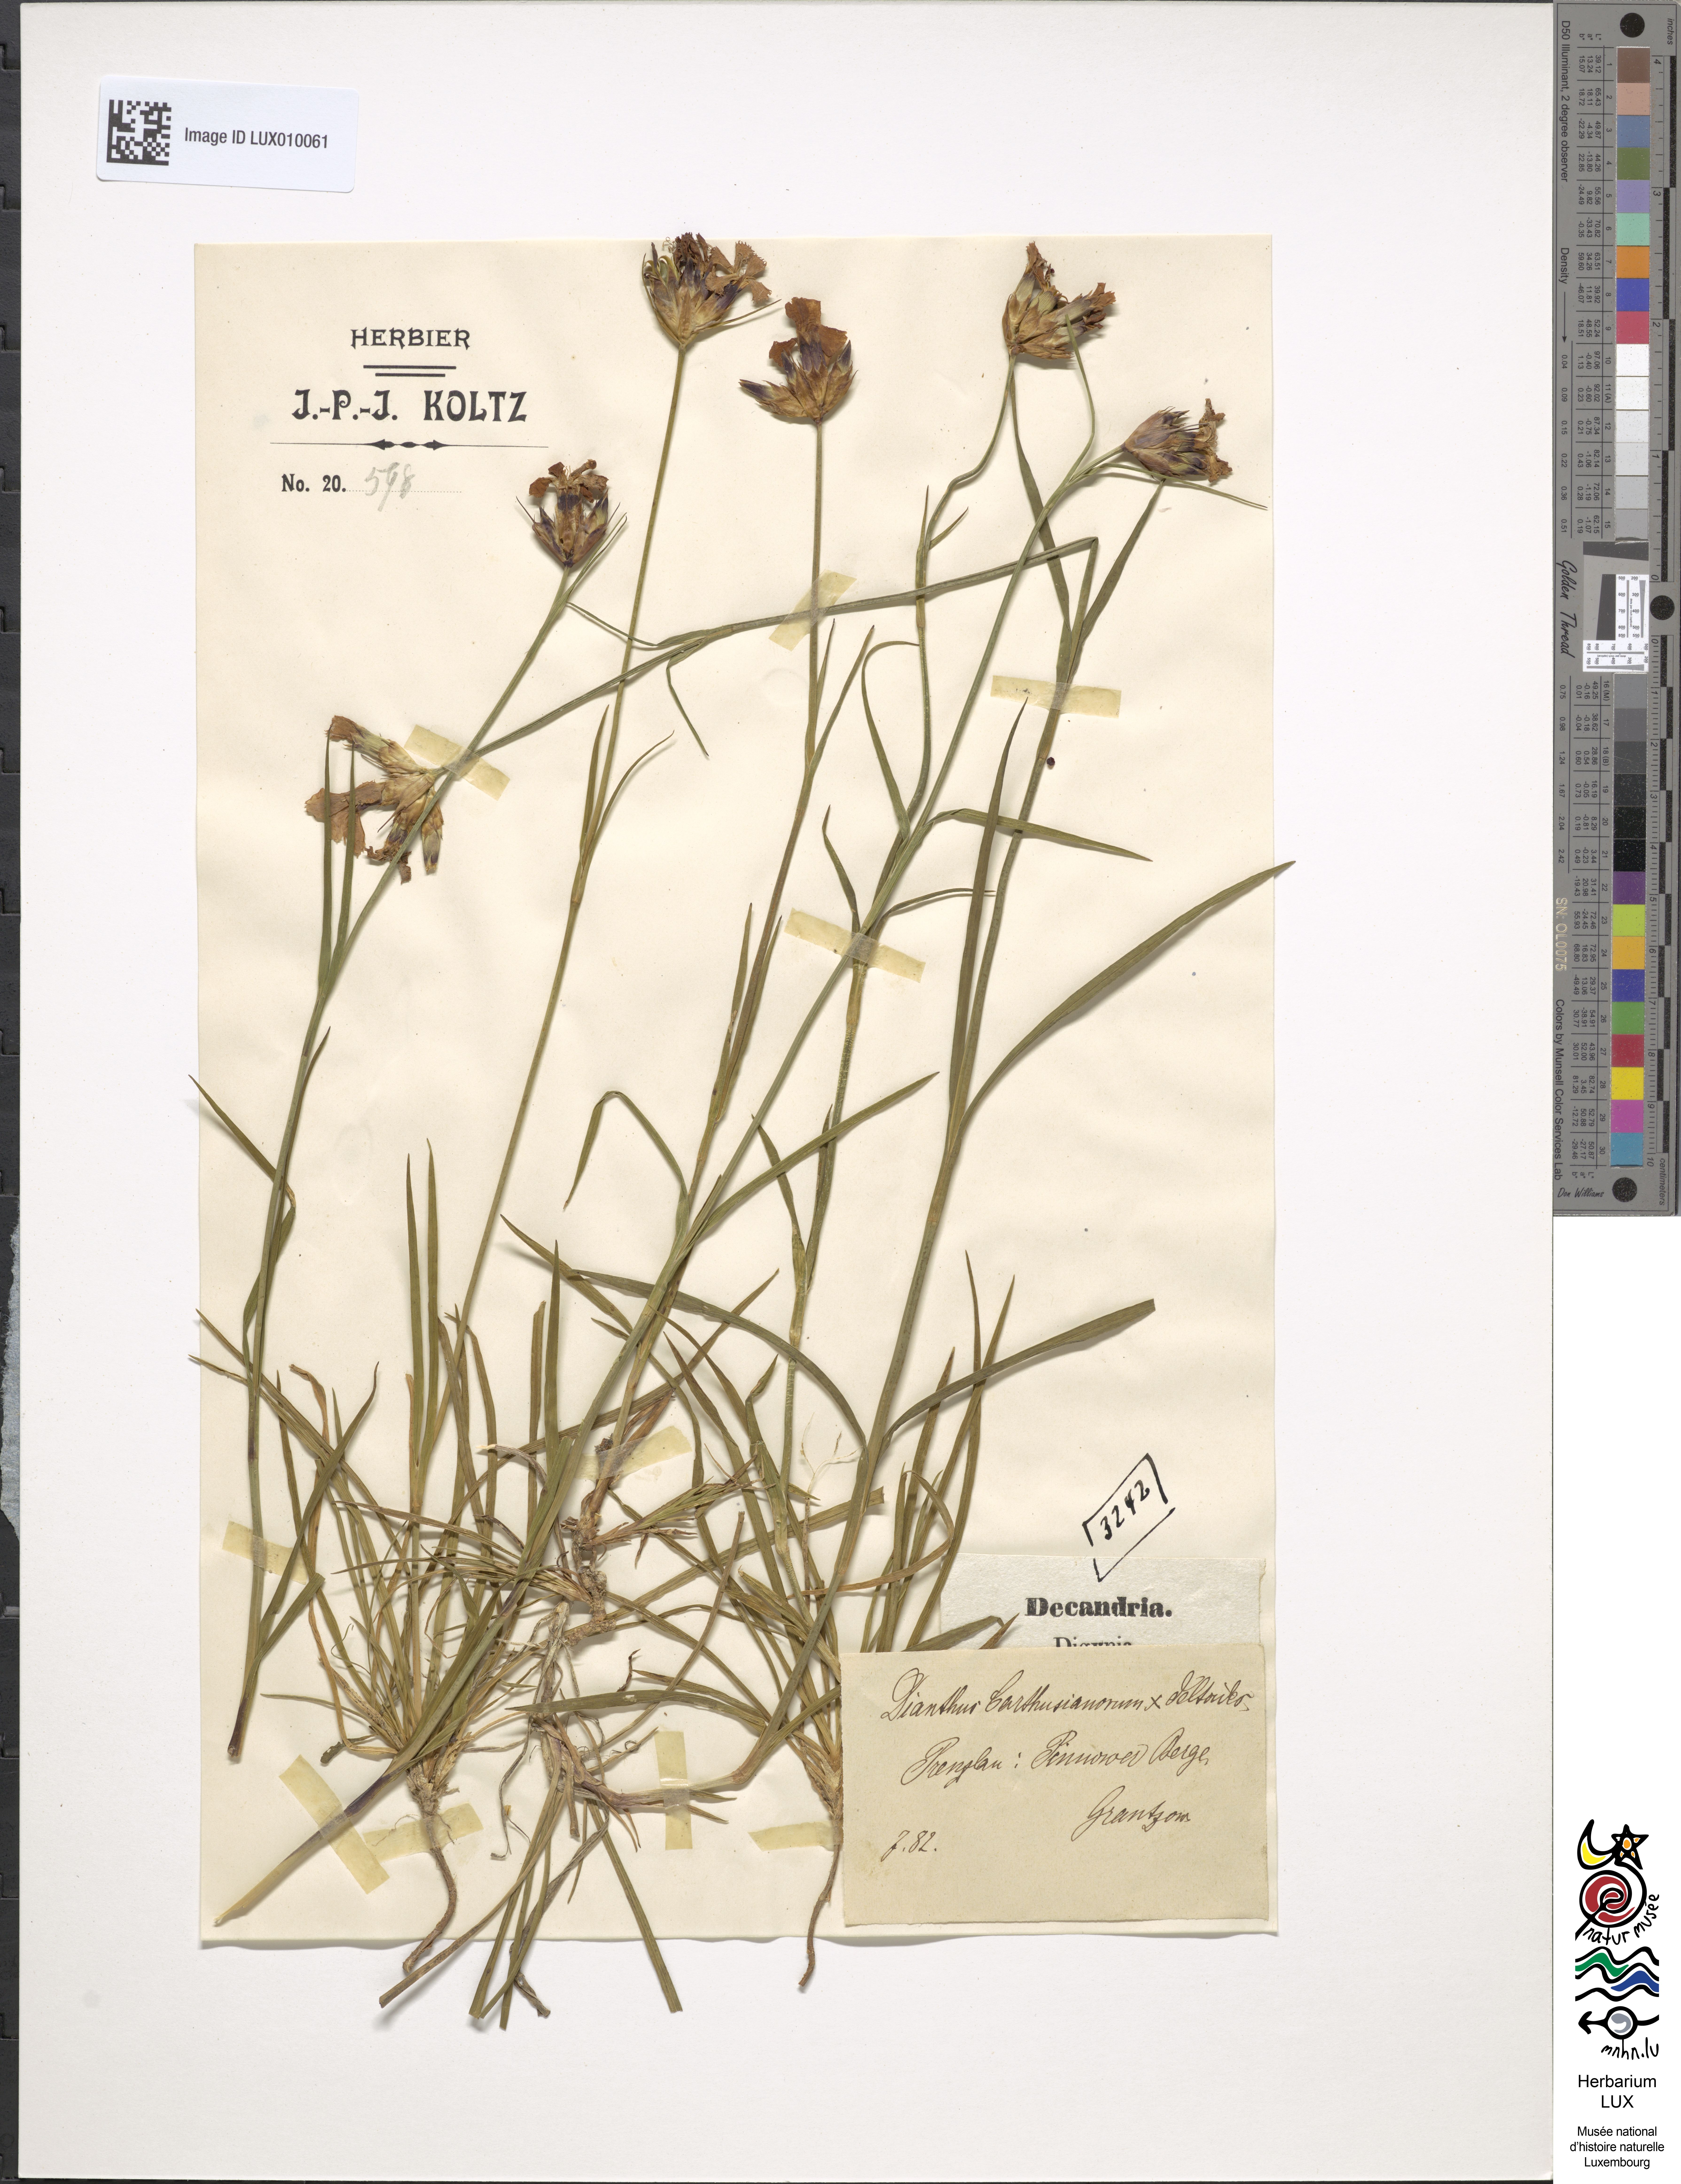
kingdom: Plantae
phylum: Tracheophyta
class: Magnoliopsida
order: Caryophyllales
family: Caryophyllaceae
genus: Dianthus
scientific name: Dianthus dufftii
